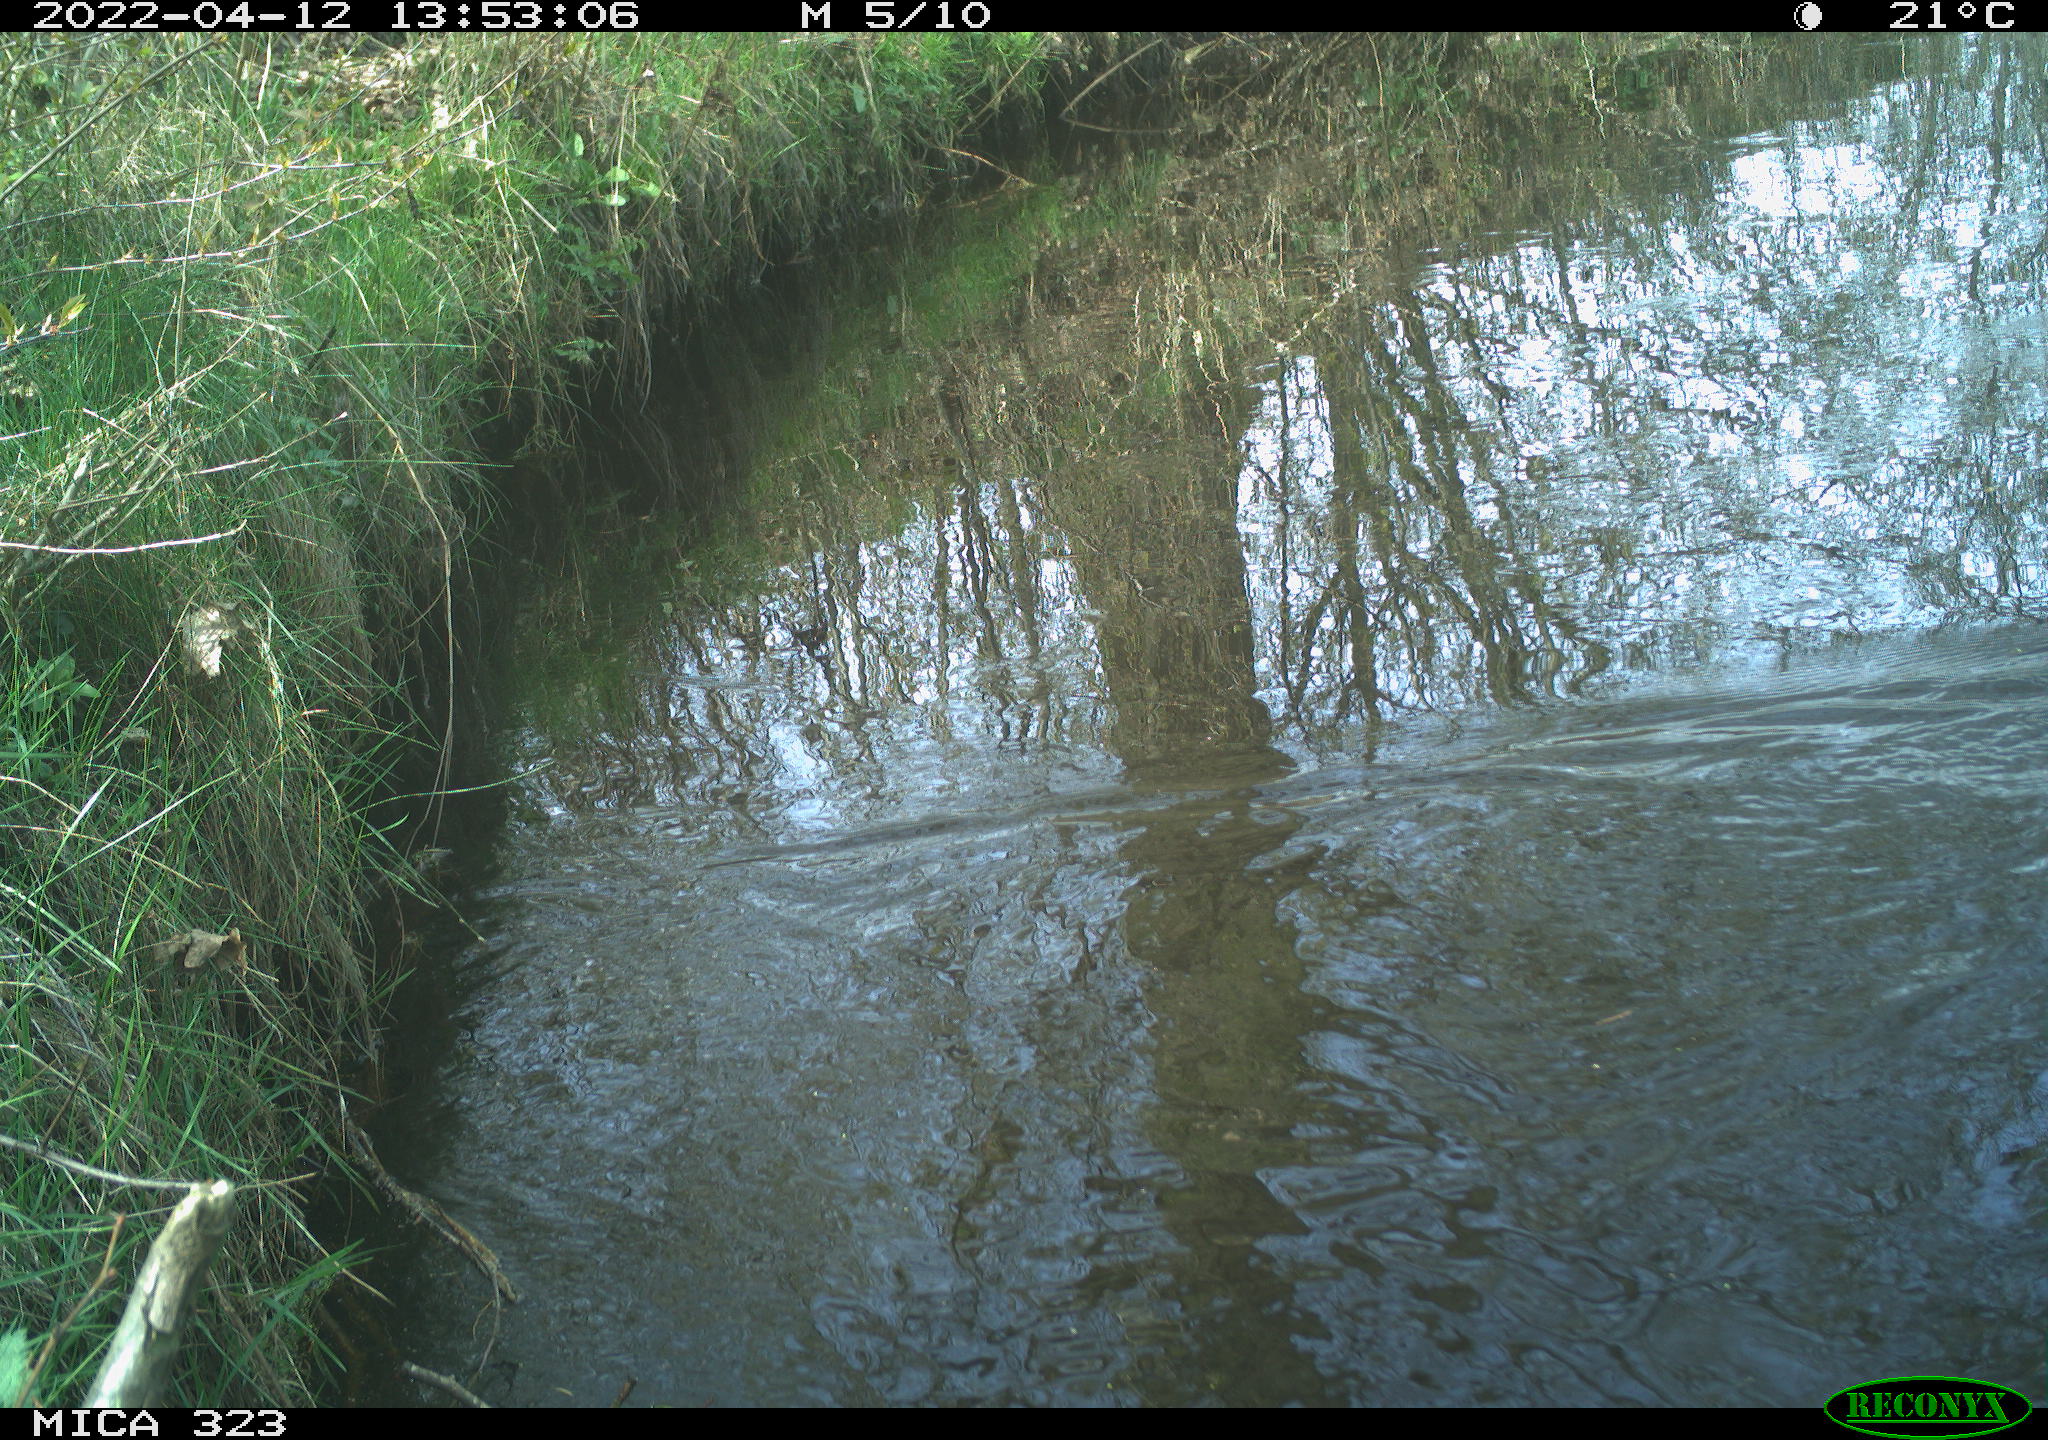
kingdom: Animalia
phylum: Chordata
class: Aves
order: Gruiformes
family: Rallidae
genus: Gallinula
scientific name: Gallinula chloropus
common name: Common moorhen
